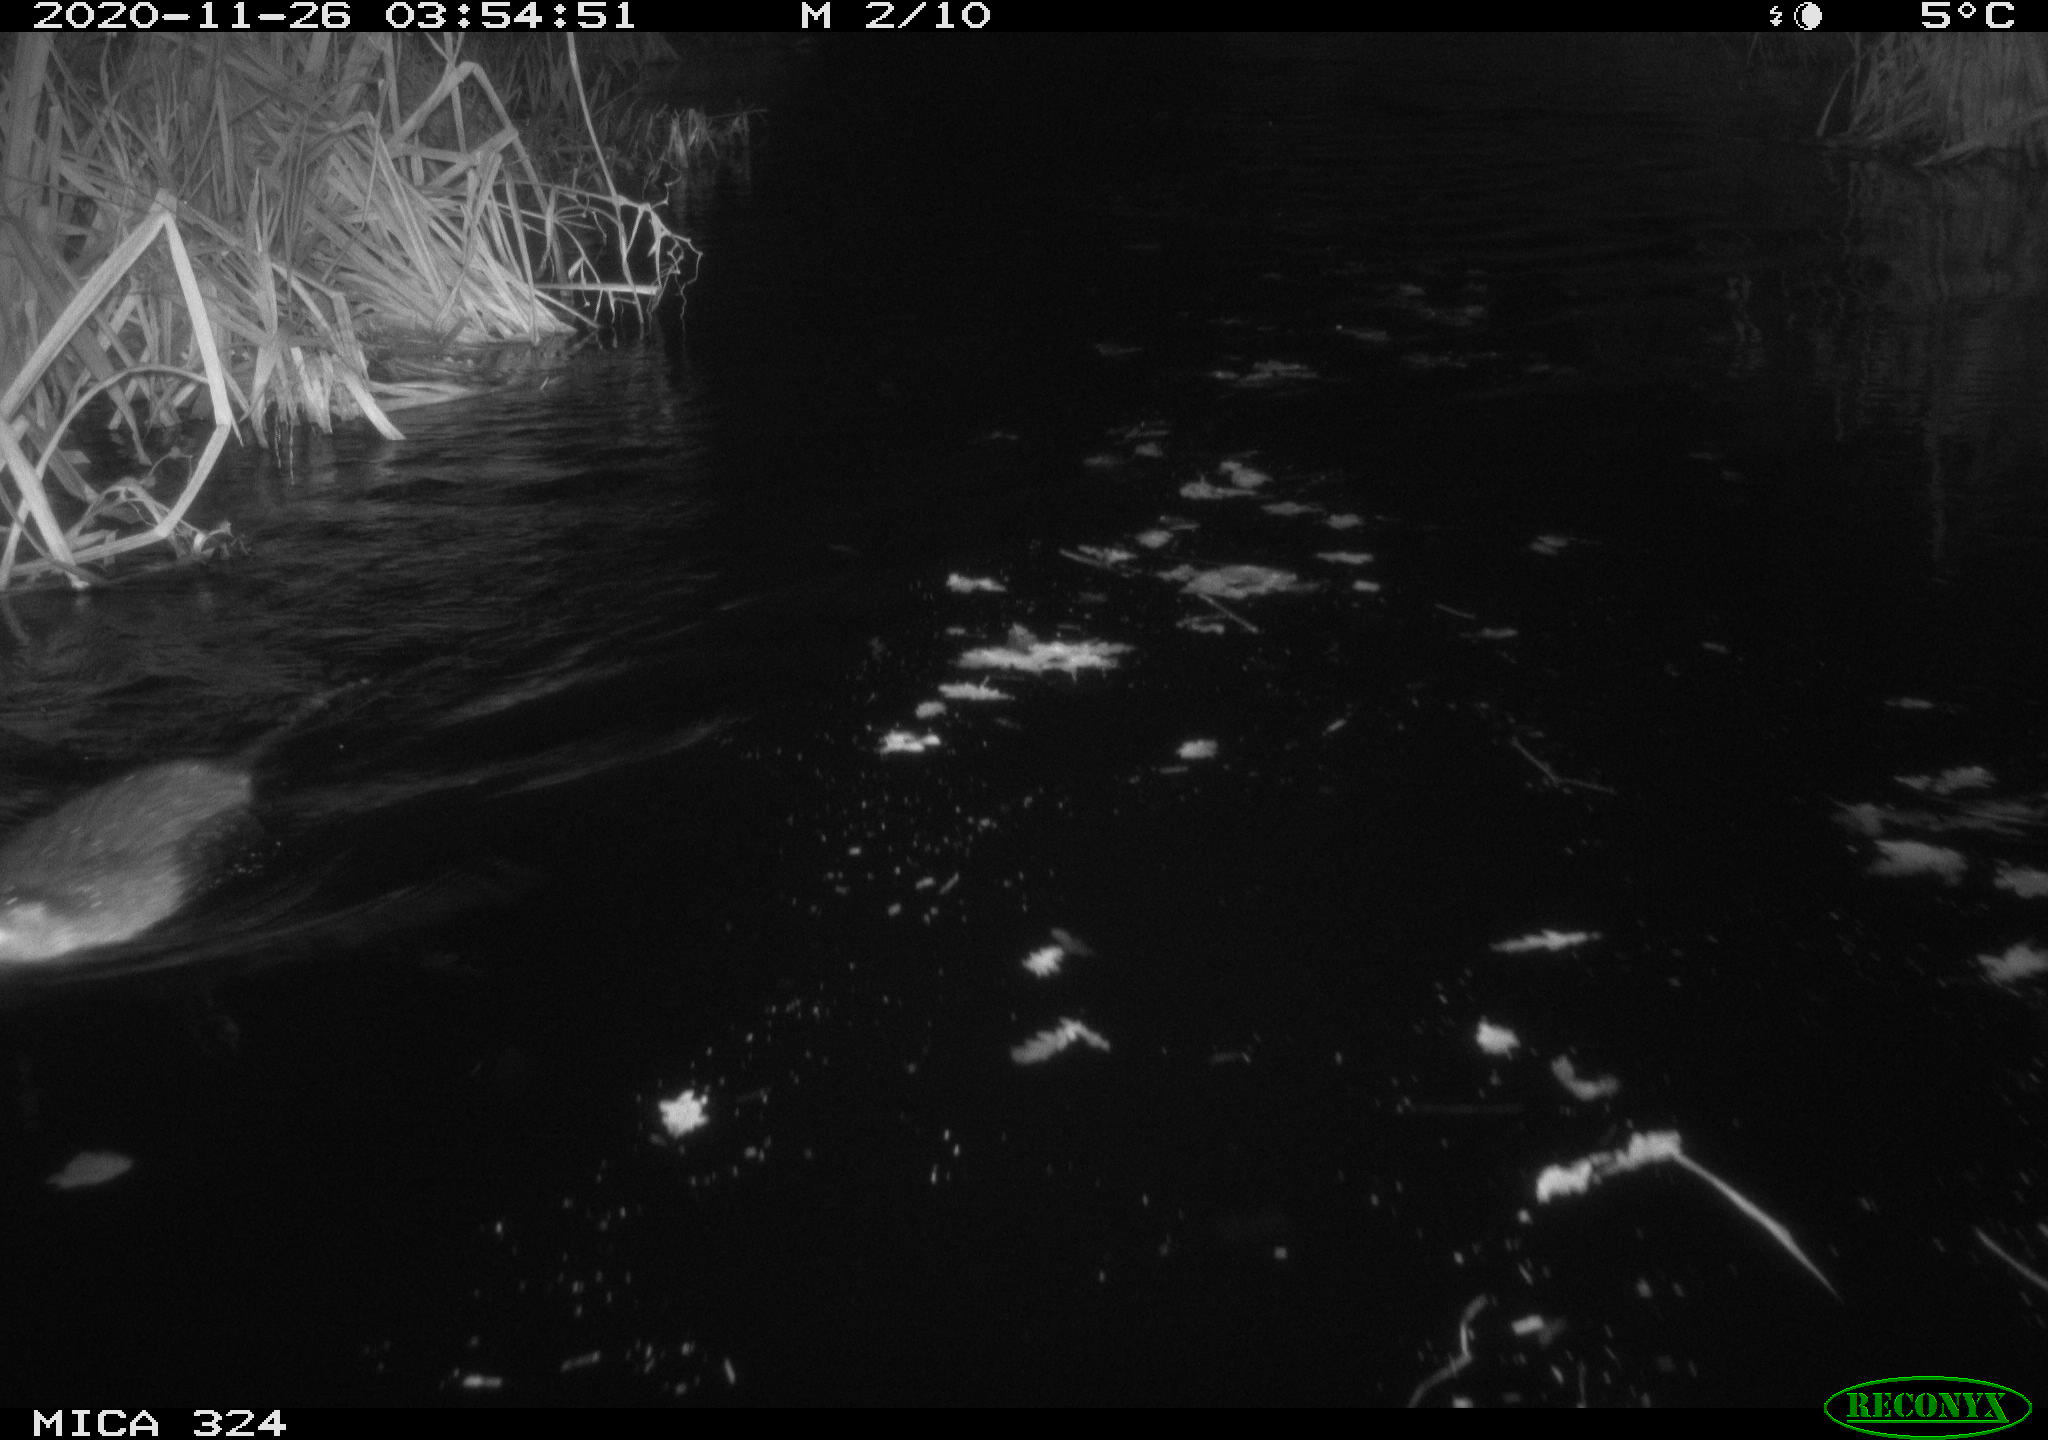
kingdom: Animalia
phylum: Chordata
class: Mammalia
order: Rodentia
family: Myocastoridae
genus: Myocastor
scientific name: Myocastor coypus
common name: Coypu
